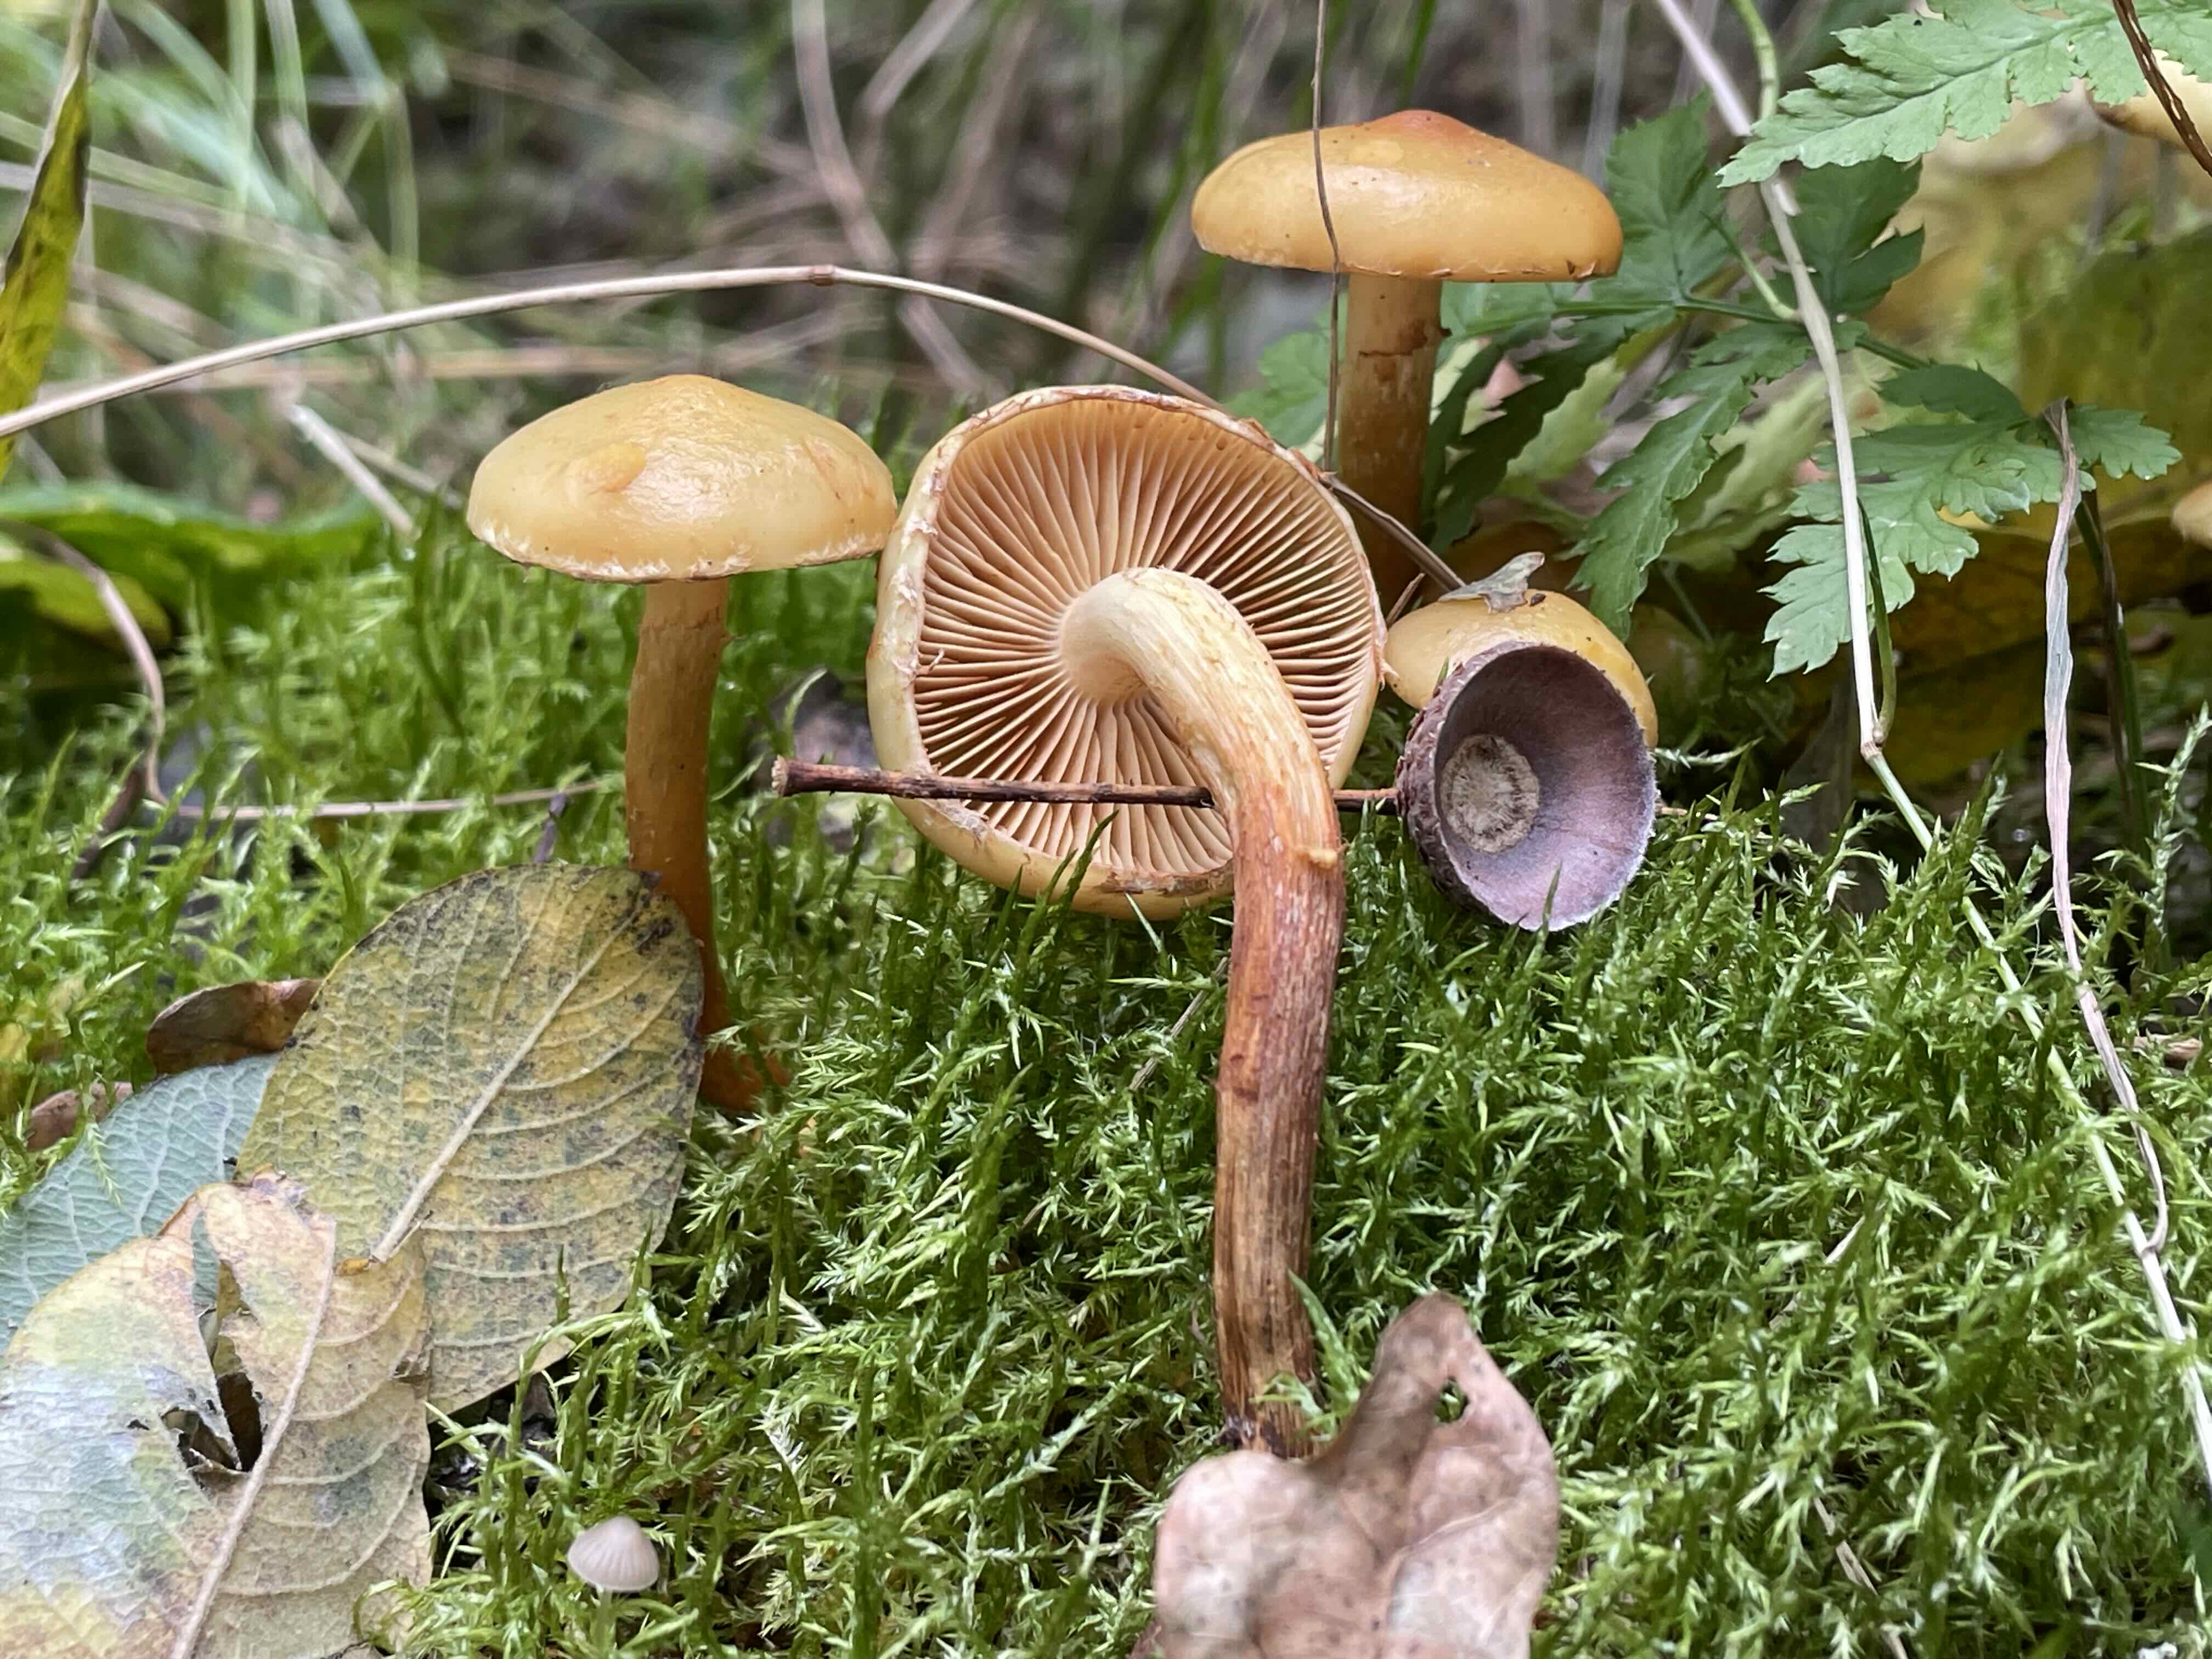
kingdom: Fungi
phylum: Basidiomycota
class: Agaricomycetes
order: Agaricales
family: Hymenogastraceae
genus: Flammula
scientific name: Flammula alnicola
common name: elle-skælhat
